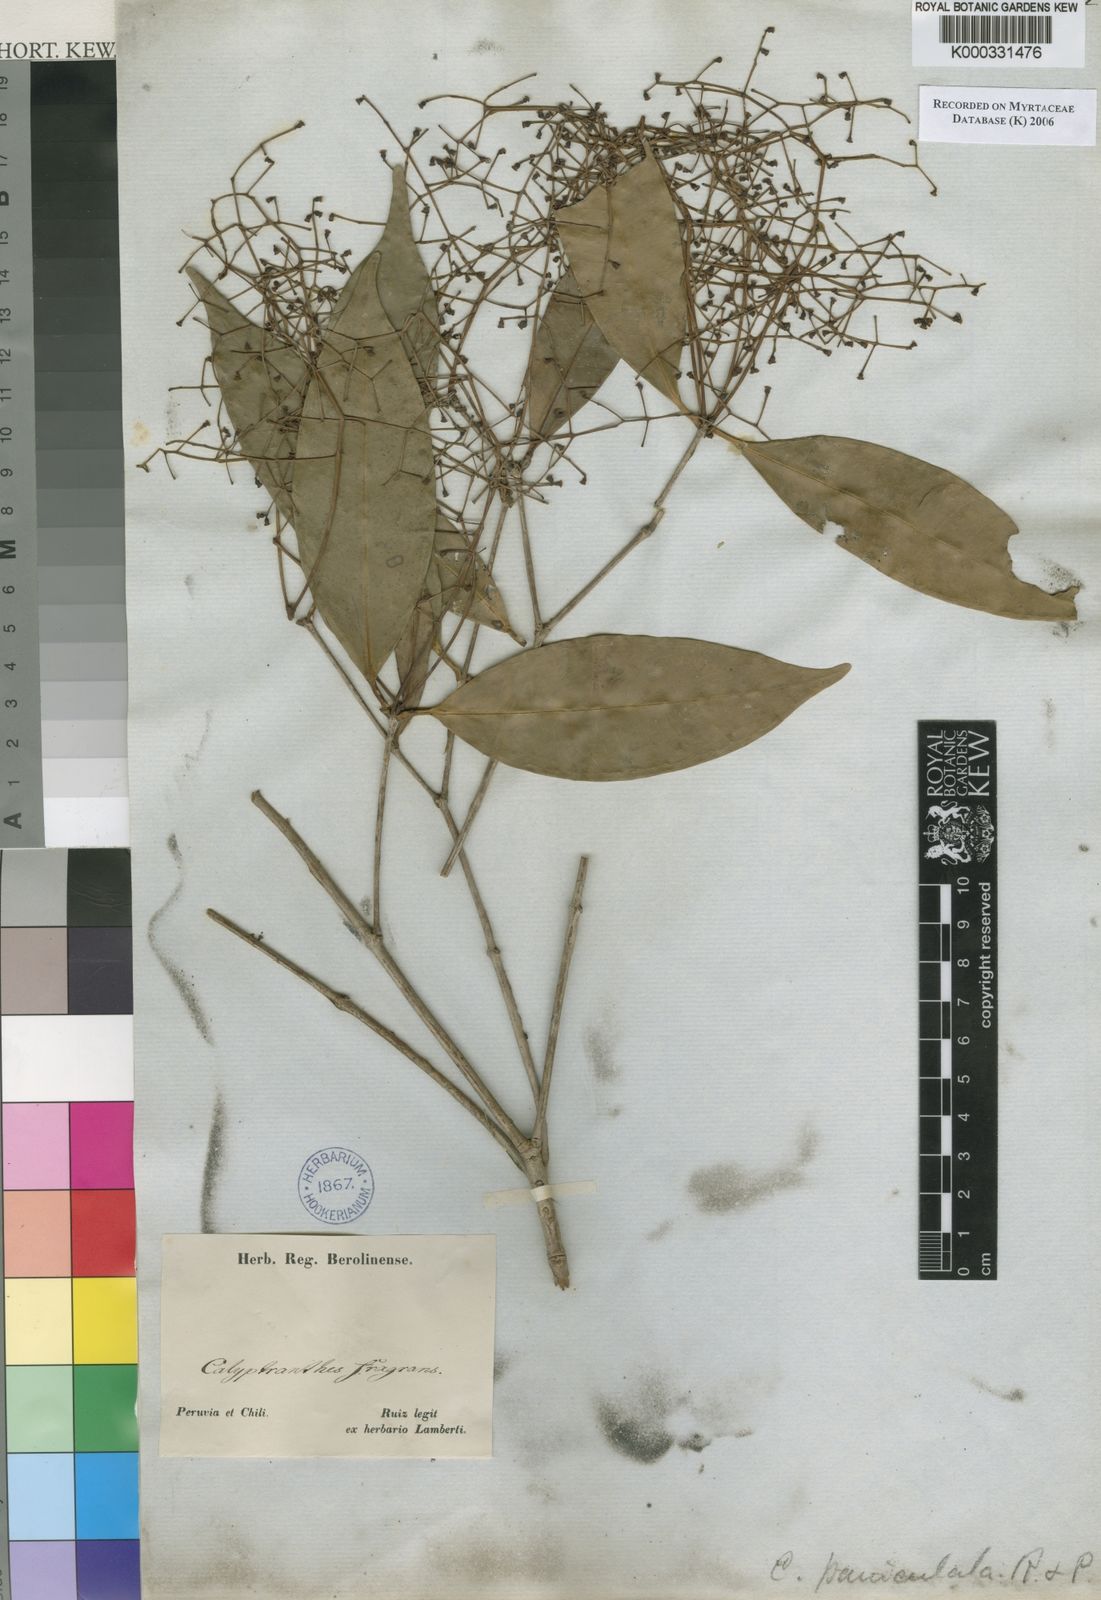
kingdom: Plantae
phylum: Tracheophyta
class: Magnoliopsida
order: Myrtales
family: Myrtaceae
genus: Calyptranthes
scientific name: Calyptranthes
